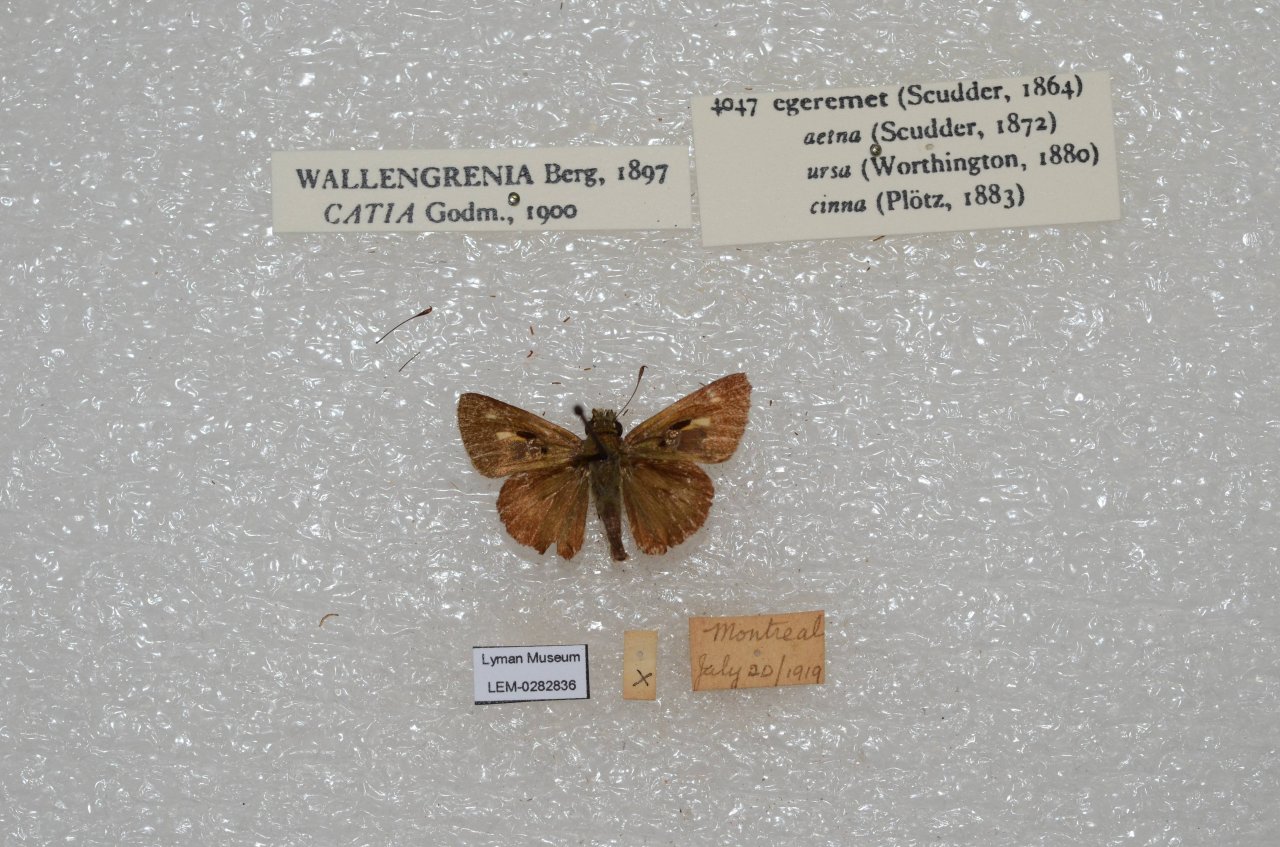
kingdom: Animalia
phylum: Arthropoda
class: Insecta
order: Lepidoptera
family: Hesperiidae
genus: Polites
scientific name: Polites egeremet
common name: Northern Broken-Dash
